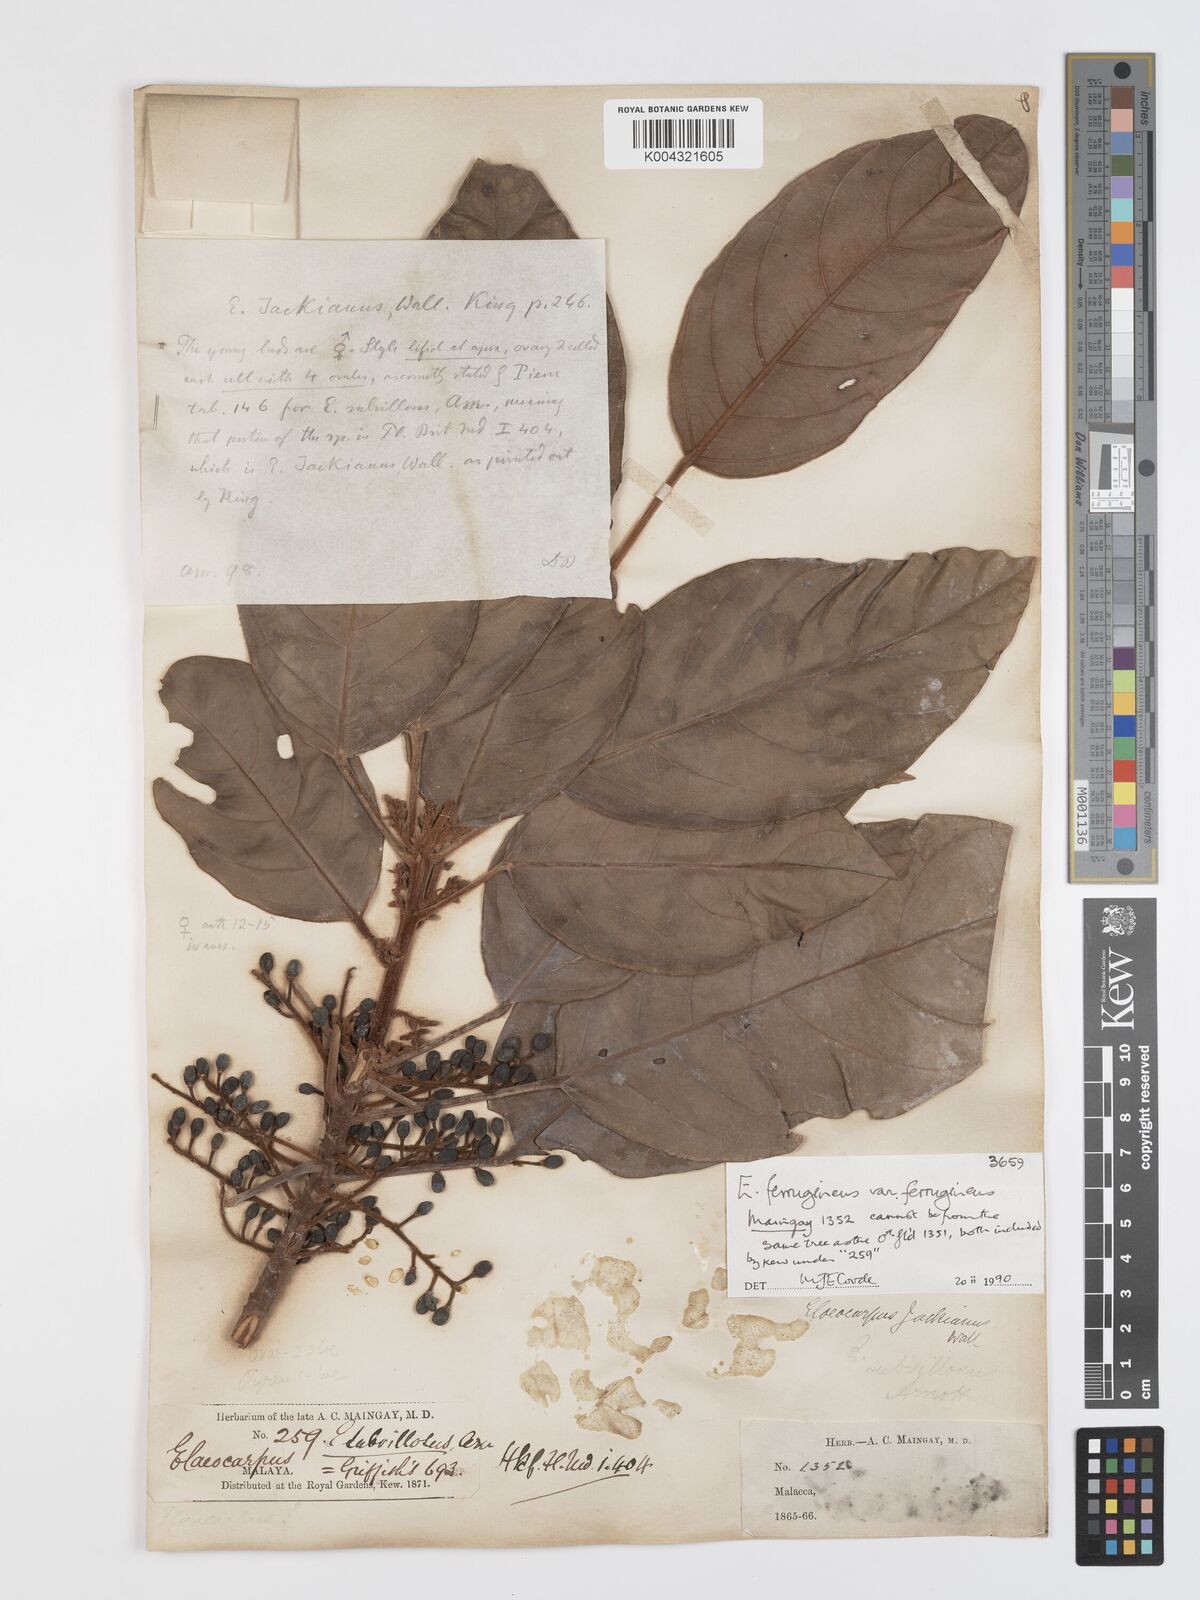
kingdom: Plantae
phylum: Tracheophyta
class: Magnoliopsida
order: Oxalidales
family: Elaeocarpaceae
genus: Elaeocarpus
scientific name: Elaeocarpus ferrugineus
